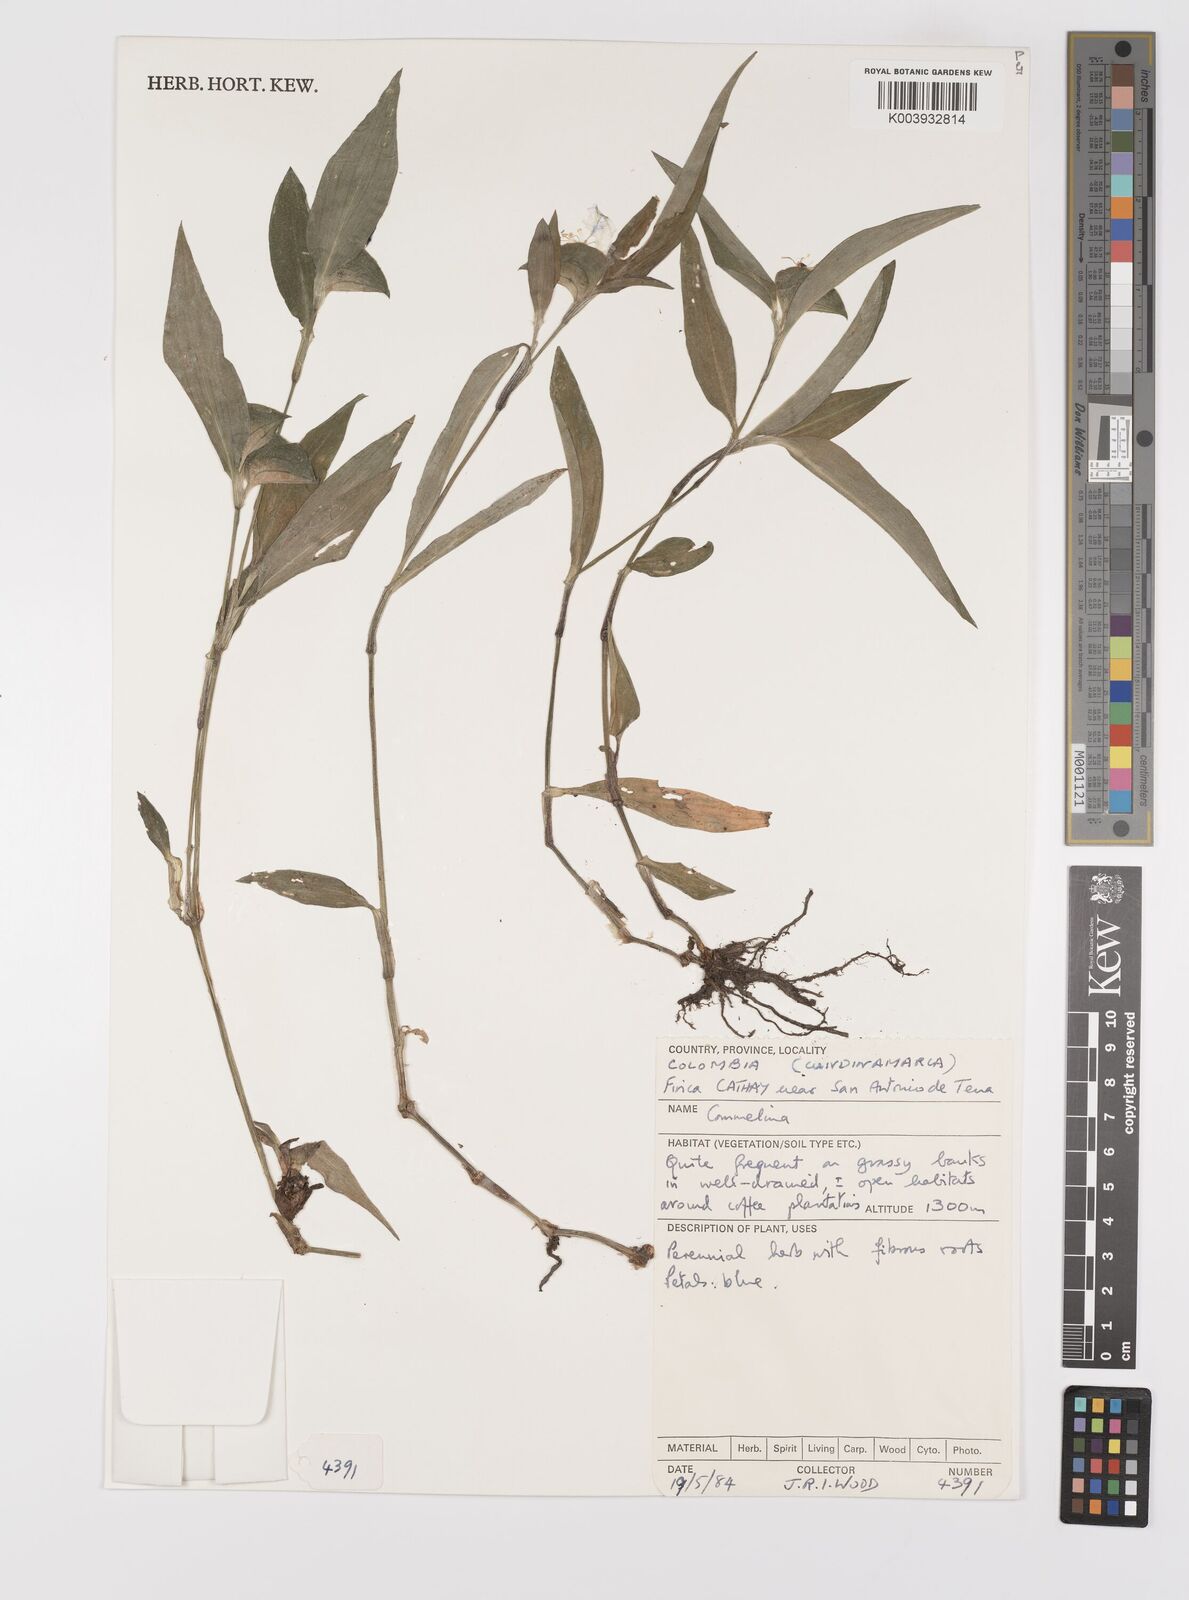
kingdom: Plantae
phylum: Tracheophyta
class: Liliopsida
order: Commelinales
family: Commelinaceae
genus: Commelina
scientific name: Commelina
